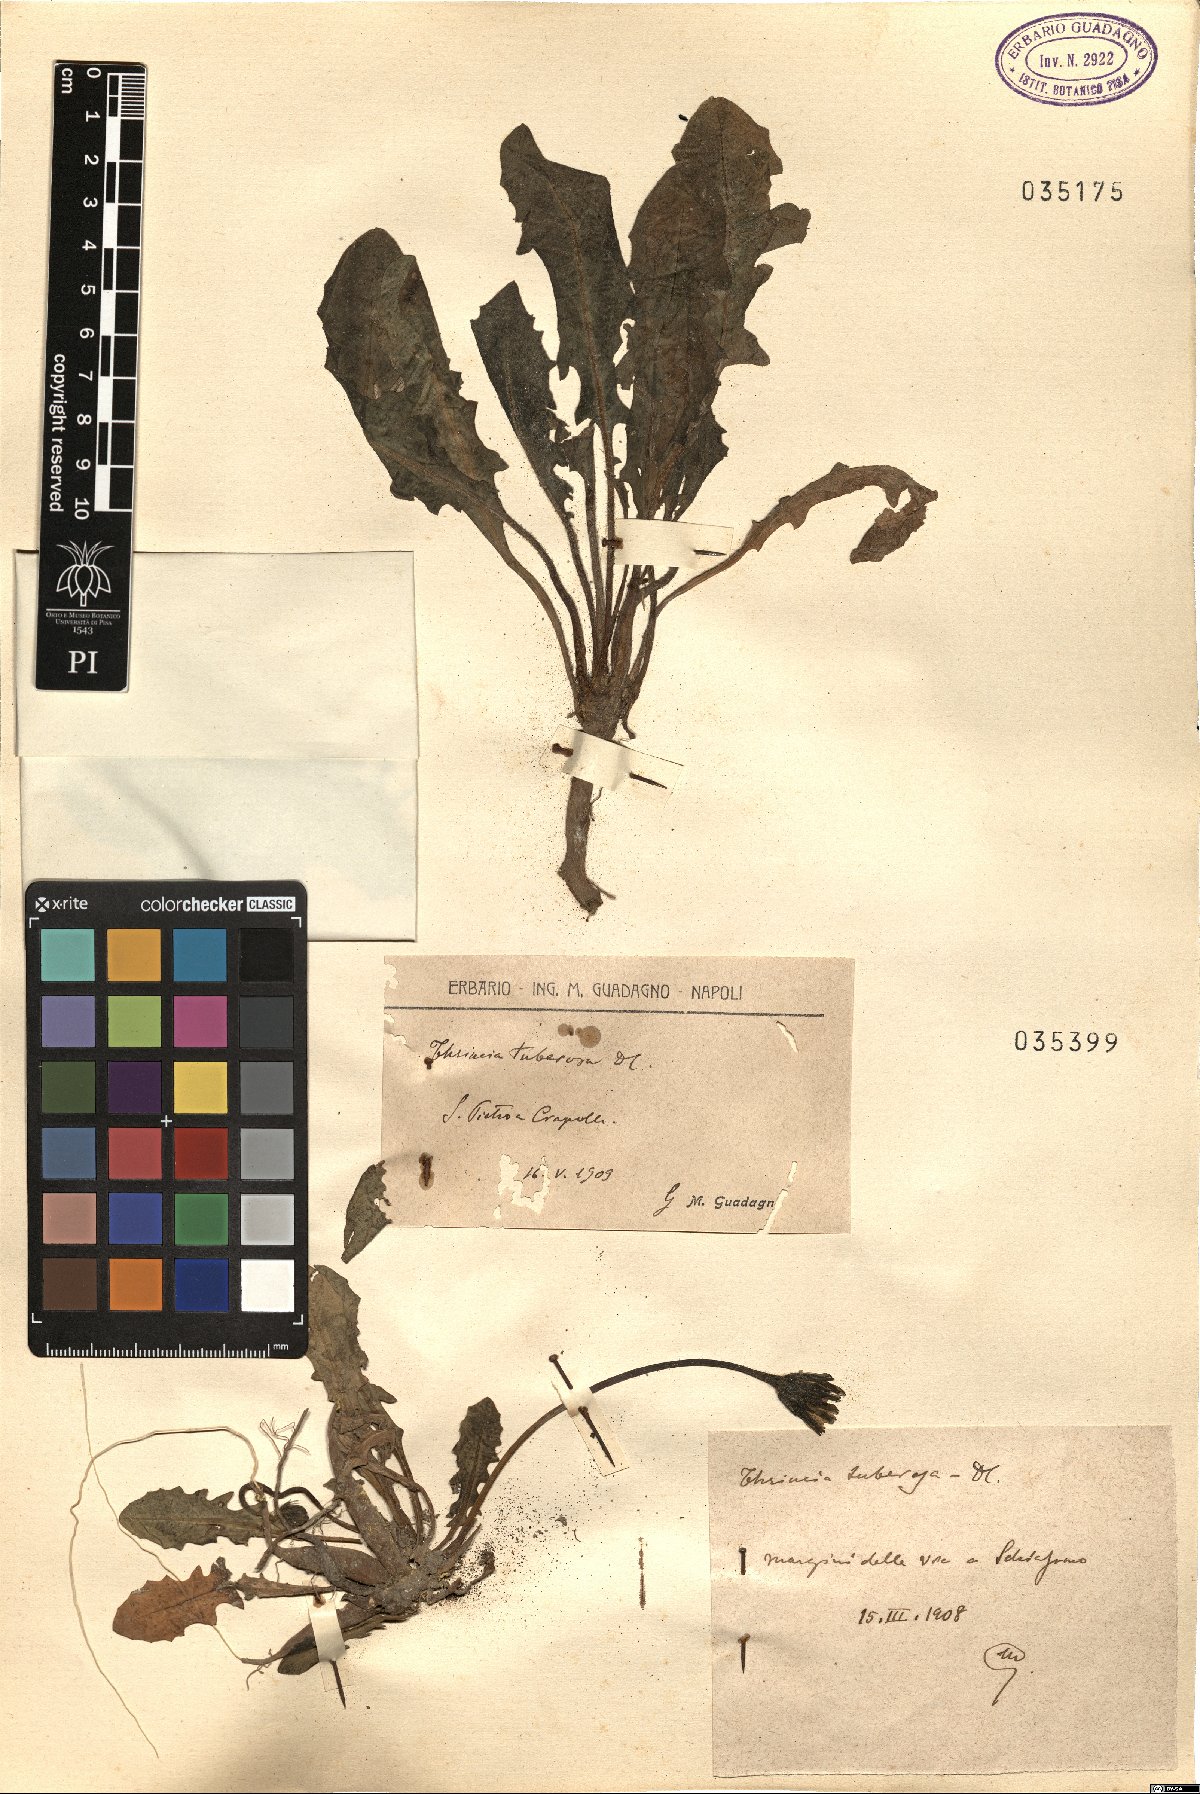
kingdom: Plantae
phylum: Tracheophyta
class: Magnoliopsida
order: Asterales
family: Asteraceae
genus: Thrincia
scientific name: Thrincia tuberosa
